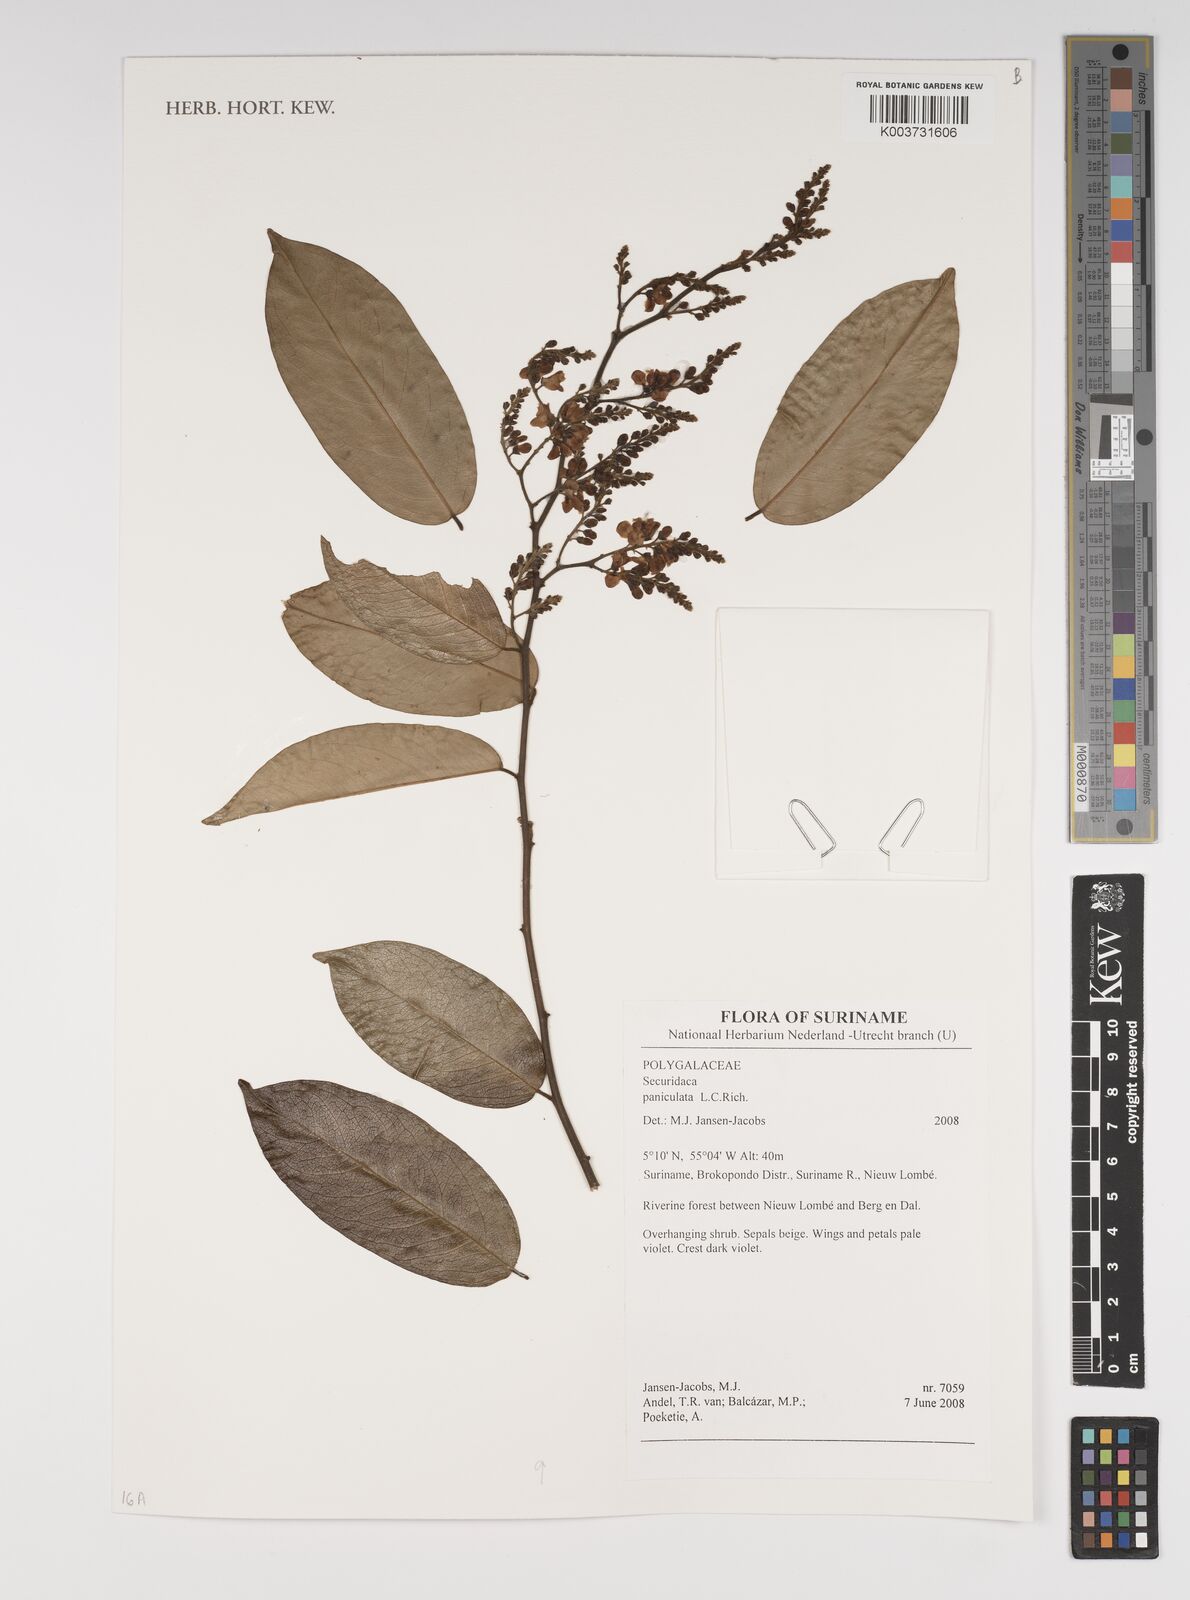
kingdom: Plantae
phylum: Tracheophyta
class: Magnoliopsida
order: Fabales
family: Polygalaceae
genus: Securidaca
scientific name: Securidaca paniculata
